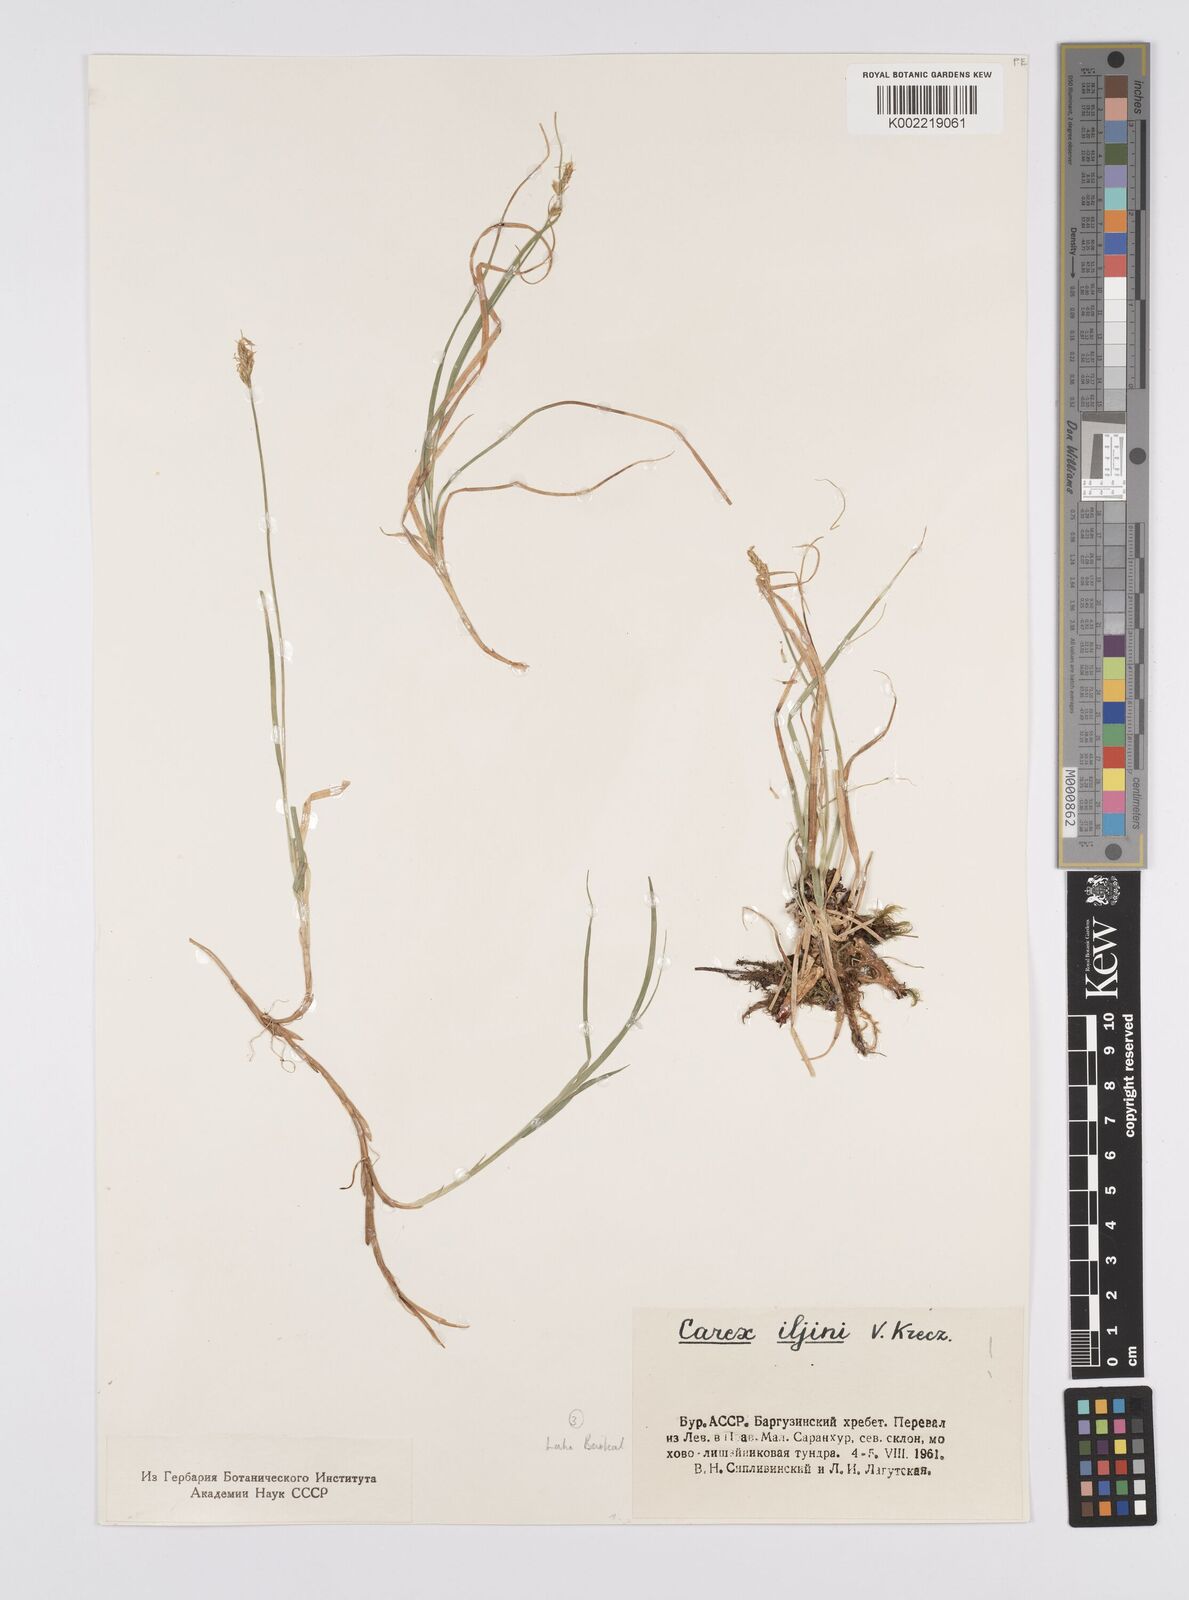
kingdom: Plantae
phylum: Tracheophyta
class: Liliopsida
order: Poales
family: Cyperaceae
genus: Carex
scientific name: Carex iljinii
